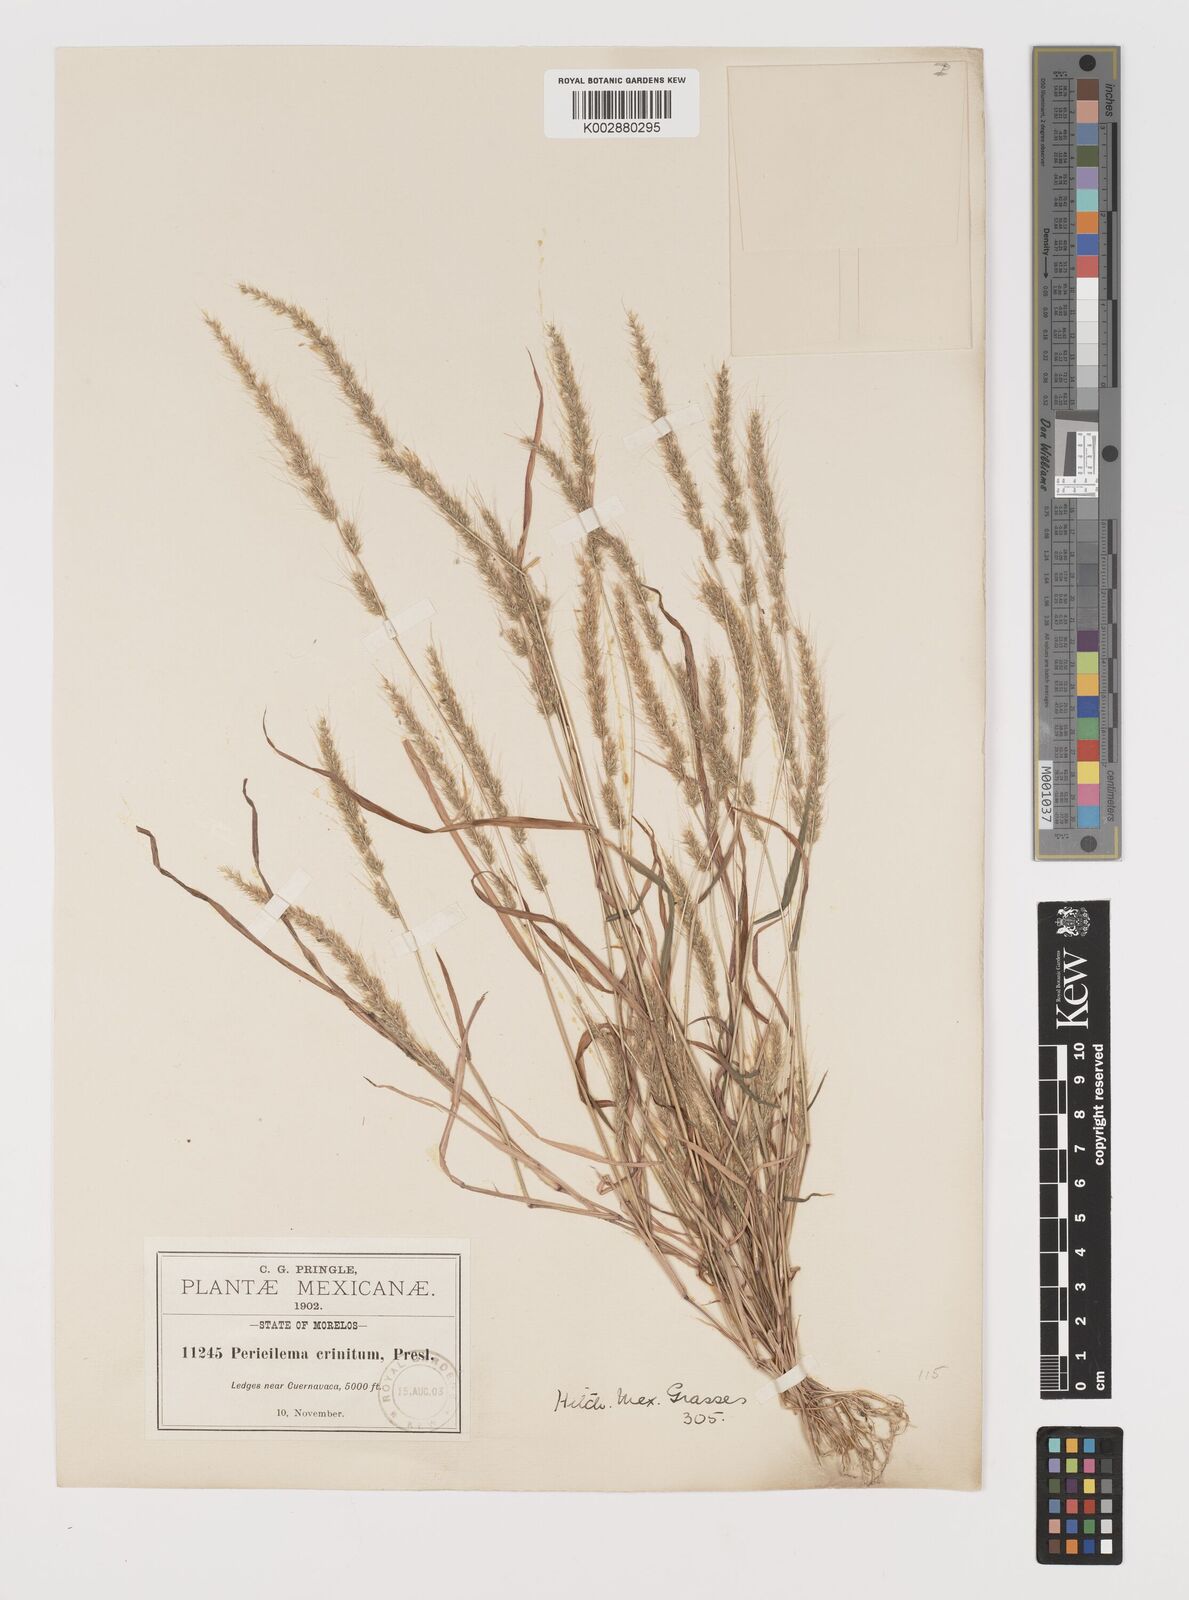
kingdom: Plantae
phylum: Tracheophyta
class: Liliopsida
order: Poales
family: Poaceae
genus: Muhlenbergia
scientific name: Muhlenbergia pereilema
